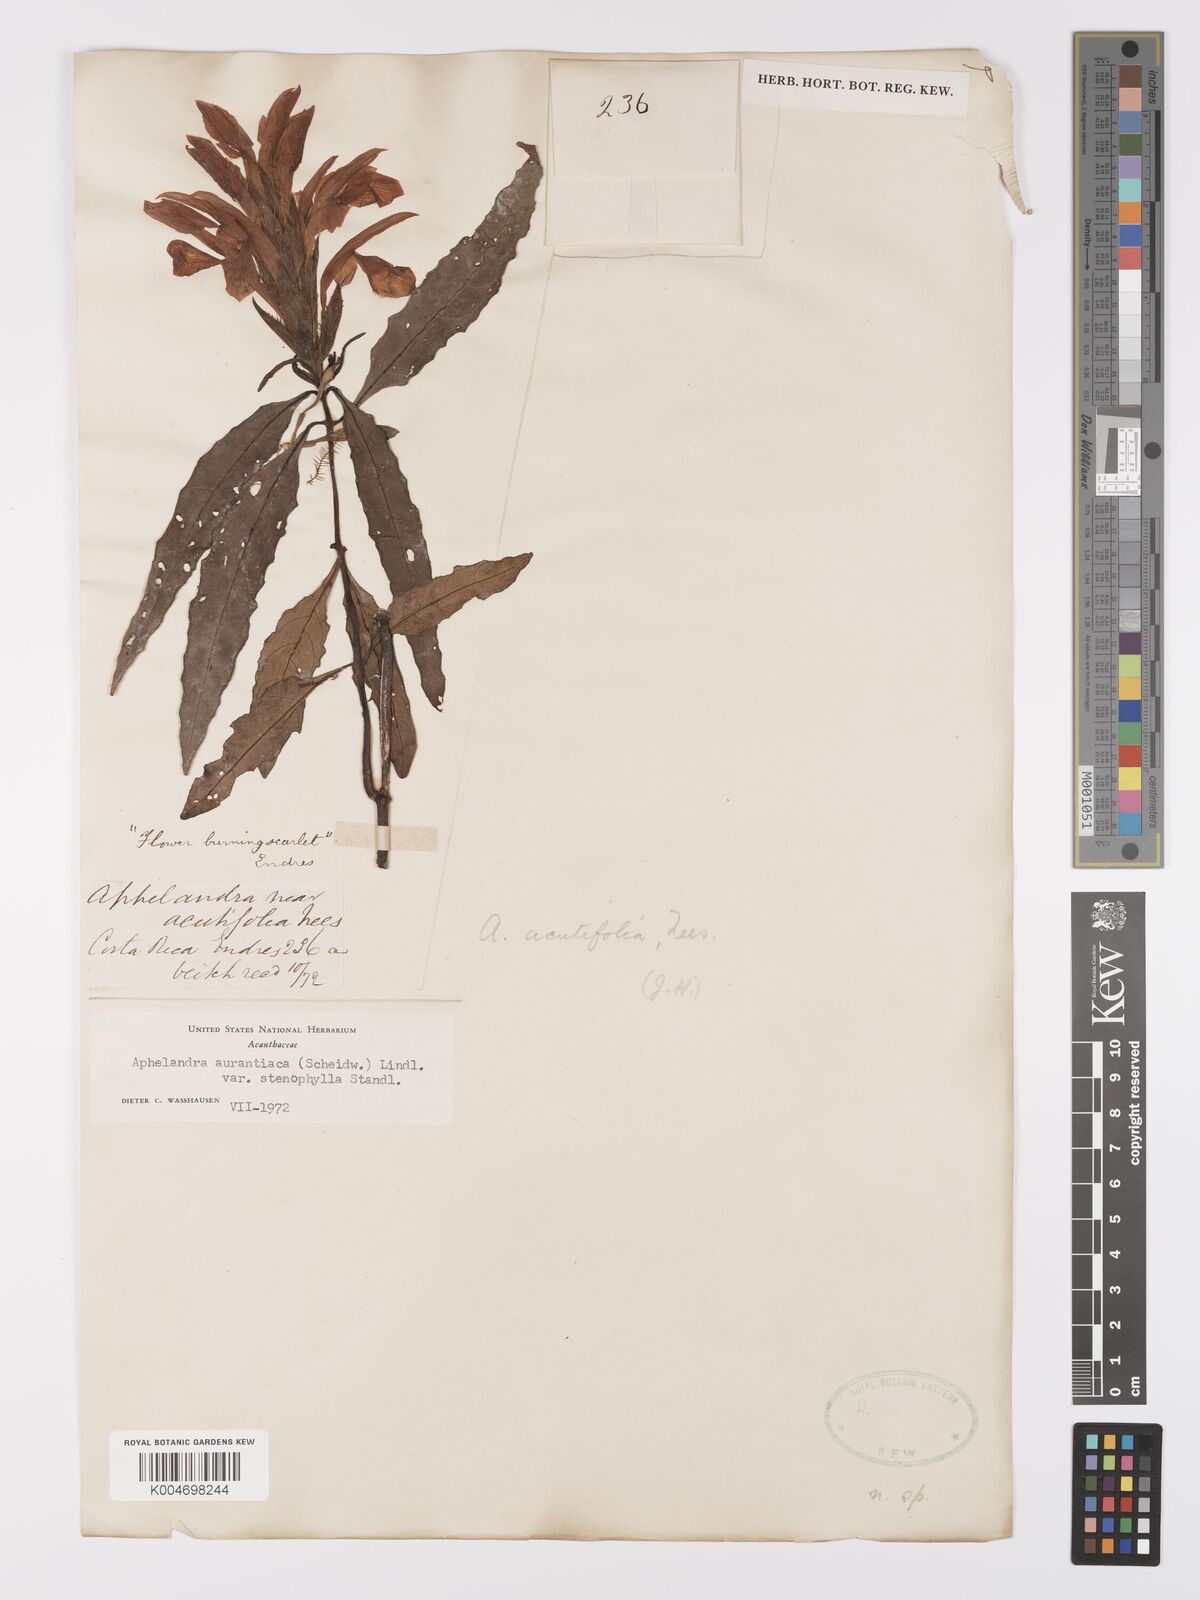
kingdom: Plantae
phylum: Tracheophyta
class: Magnoliopsida
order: Lamiales
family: Acanthaceae
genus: Aphelandra
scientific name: Aphelandra aurantiaca
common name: Fiery spike
